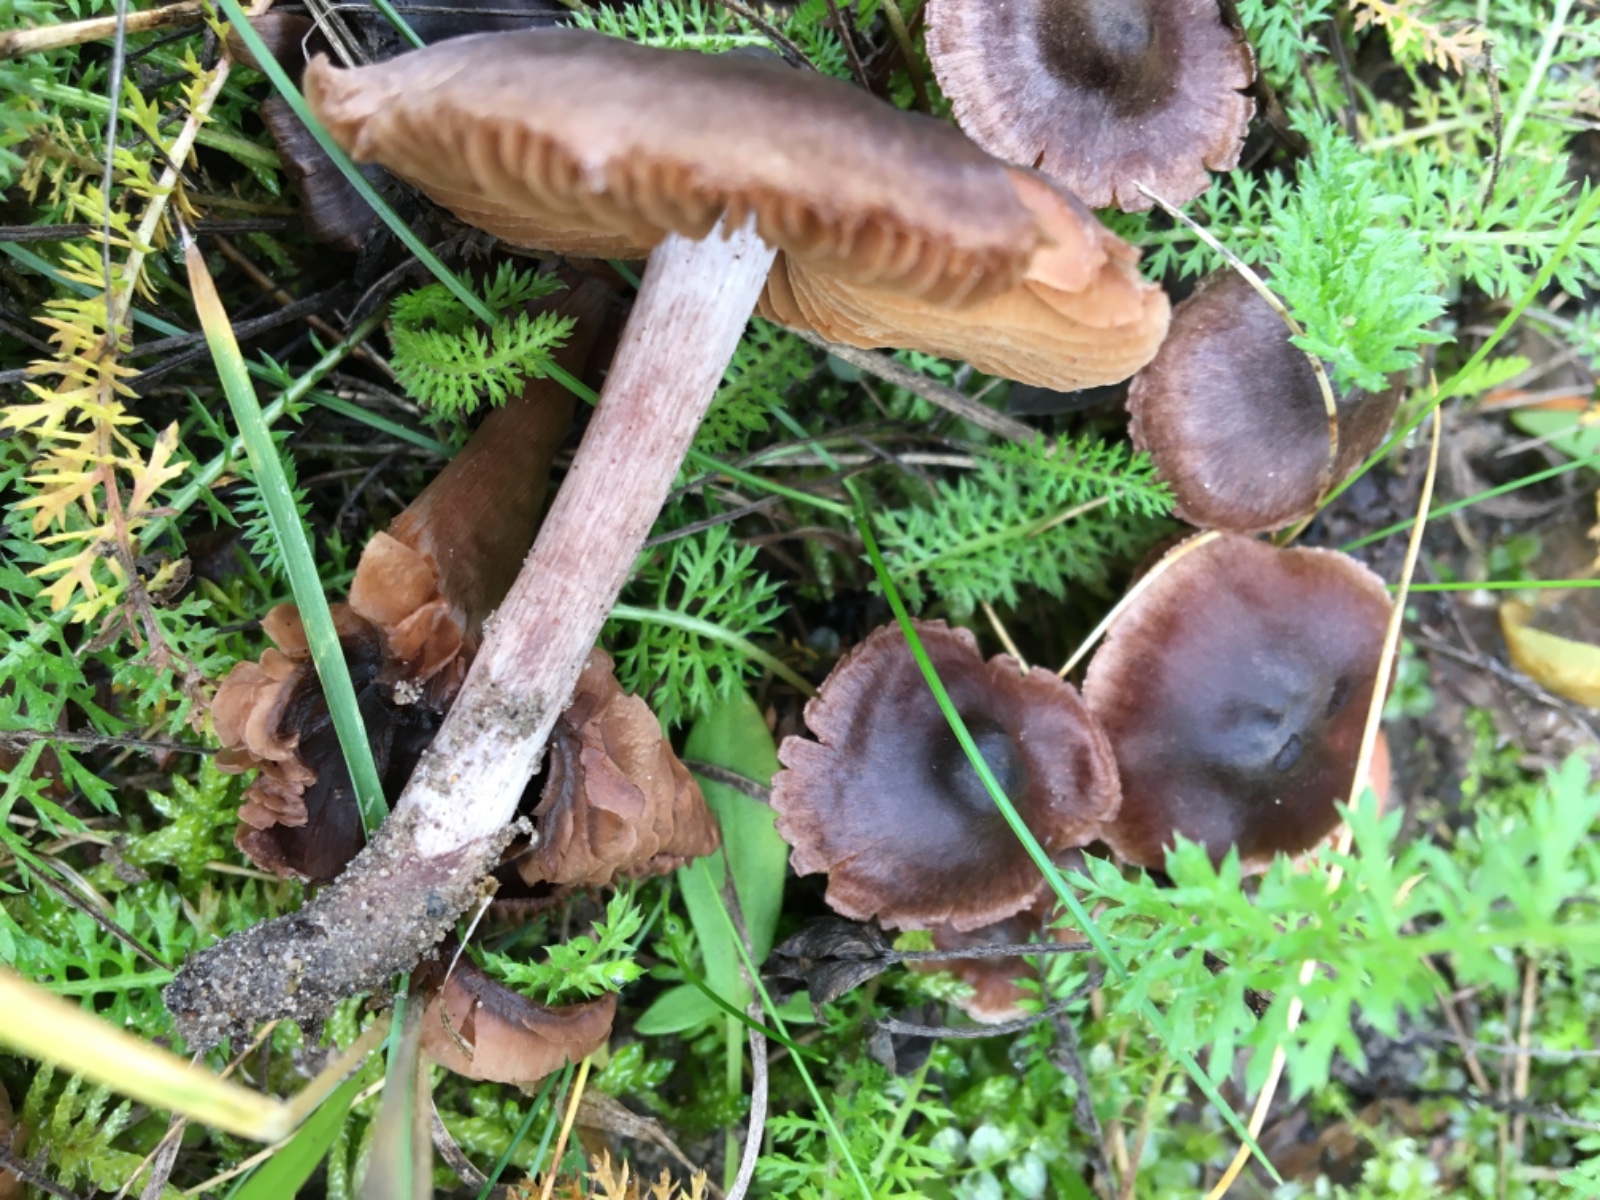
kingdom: Fungi
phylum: Basidiomycota
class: Agaricomycetes
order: Agaricales
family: Cortinariaceae
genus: Cortinarius
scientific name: Cortinarius
